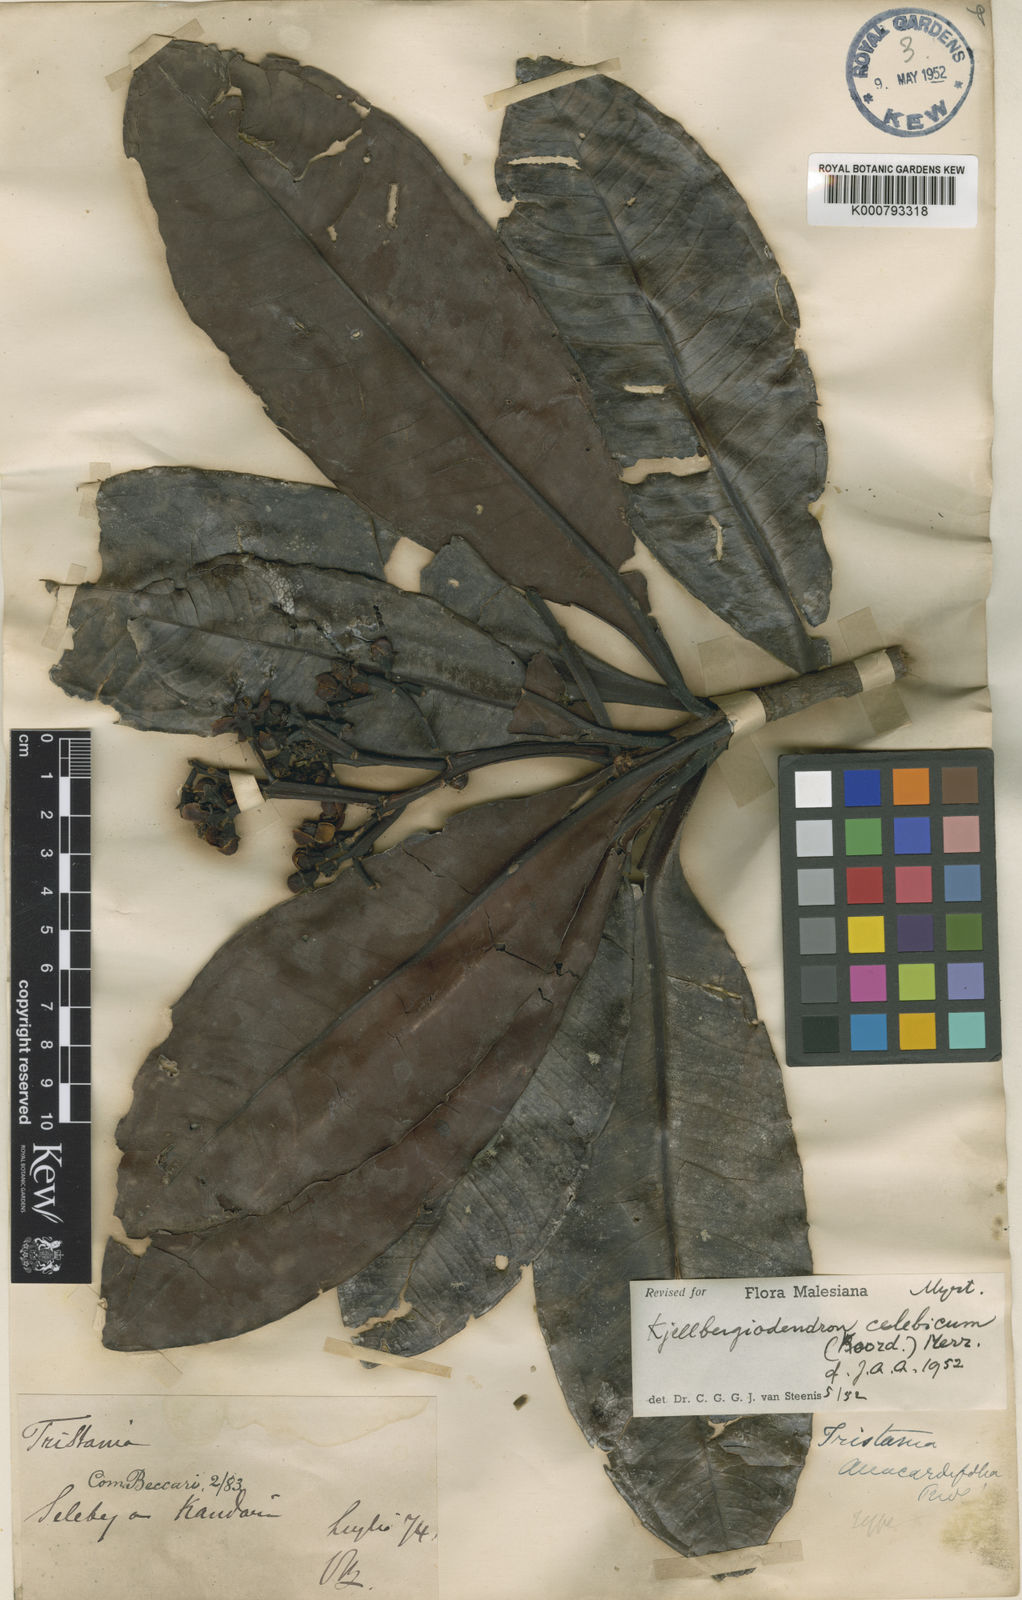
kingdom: Plantae
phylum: Tracheophyta
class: Magnoliopsida
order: Myrtales
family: Myrtaceae
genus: Kjellbergiodendron
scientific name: Kjellbergiodendron celebicum
